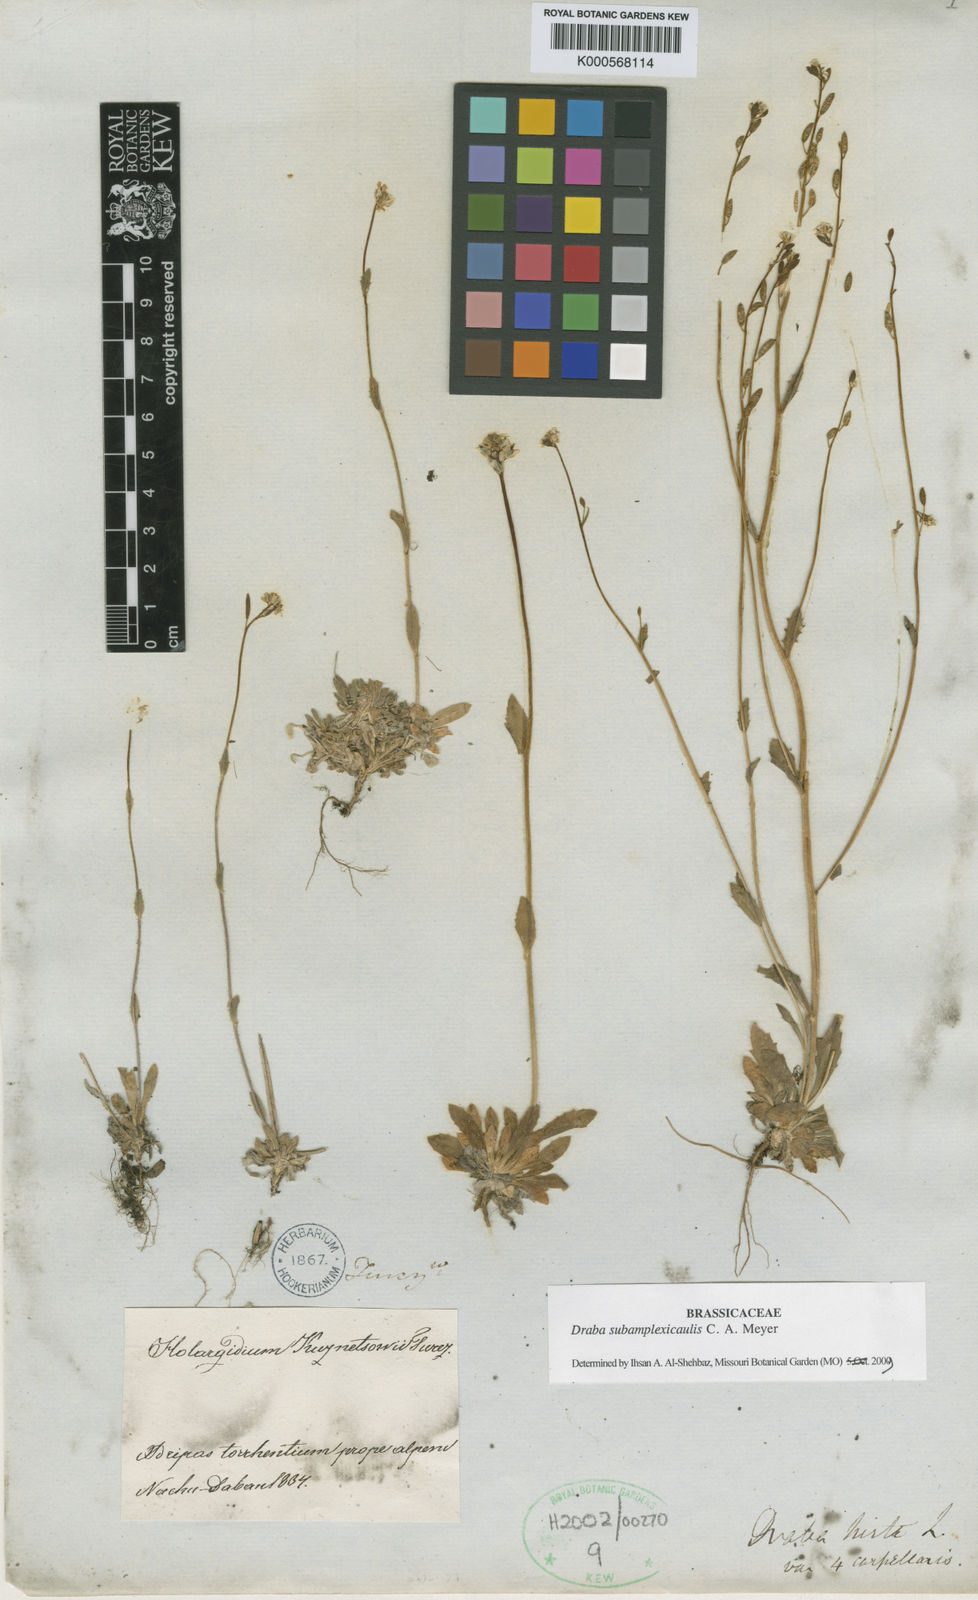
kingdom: Plantae
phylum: Tracheophyta
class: Magnoliopsida
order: Brassicales
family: Brassicaceae
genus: Draba
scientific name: Draba subamplexicaulis
